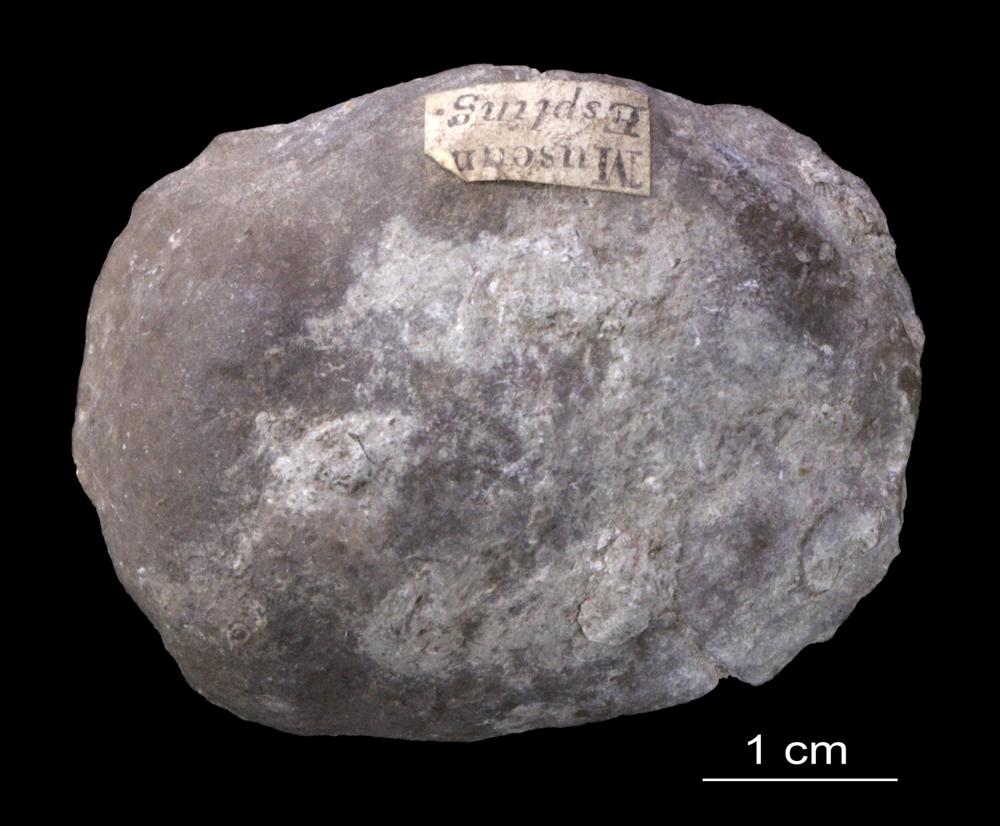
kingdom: Animalia
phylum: Brachiopoda
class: Craniata
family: Trimerellidae
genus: Dinobolus
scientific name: Dinobolus
